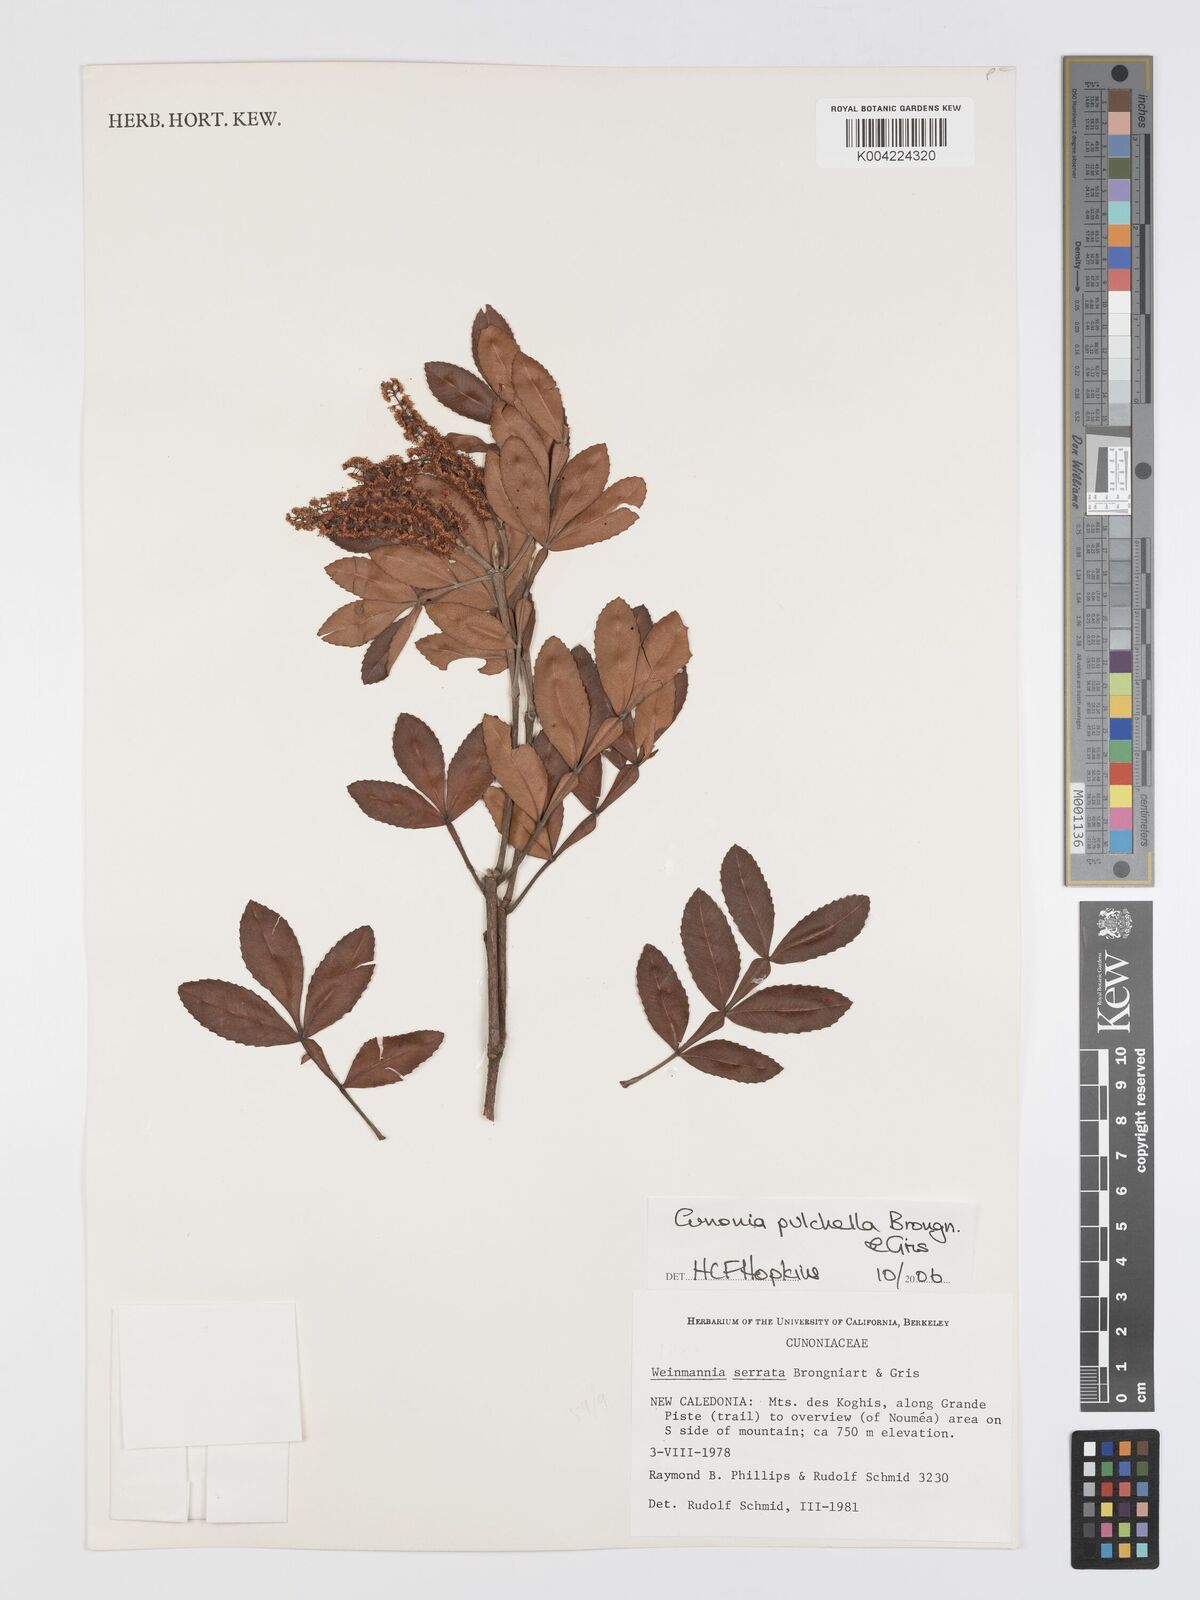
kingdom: Plantae
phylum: Tracheophyta
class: Magnoliopsida
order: Oxalidales
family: Cunoniaceae
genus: Cunonia
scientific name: Cunonia pulchella
